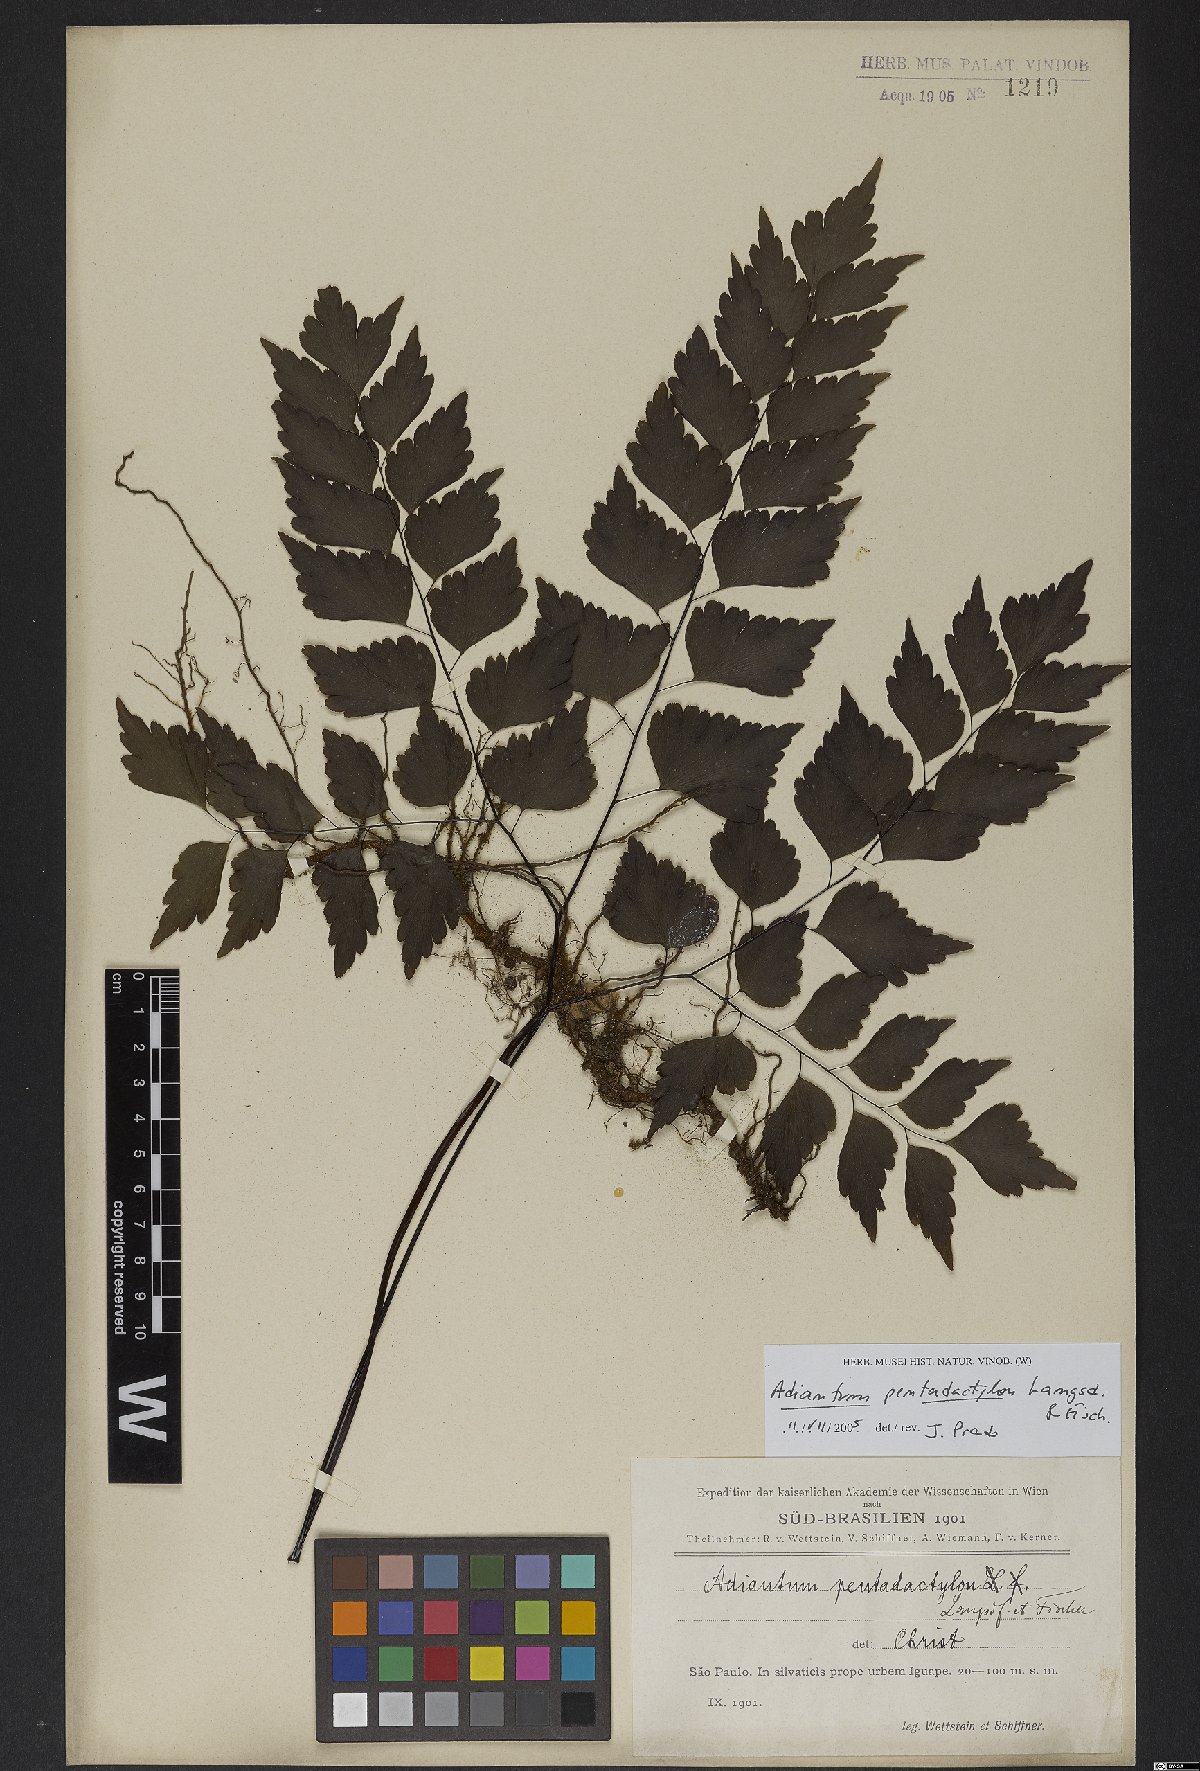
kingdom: Plantae
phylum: Tracheophyta
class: Polypodiopsida
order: Polypodiales
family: Pteridaceae
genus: Adiantum
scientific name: Adiantum pentadactylon
